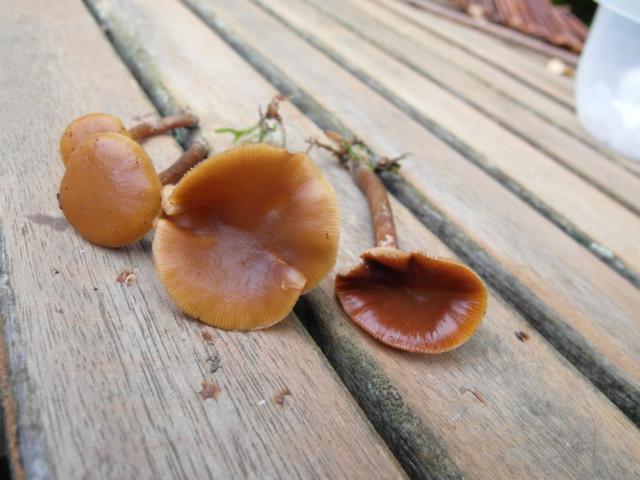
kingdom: Fungi
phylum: Basidiomycota
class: Agaricomycetes
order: Agaricales
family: Hymenogastraceae
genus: Galerina
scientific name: Galerina marginata
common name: randbæltet hjelmhat
